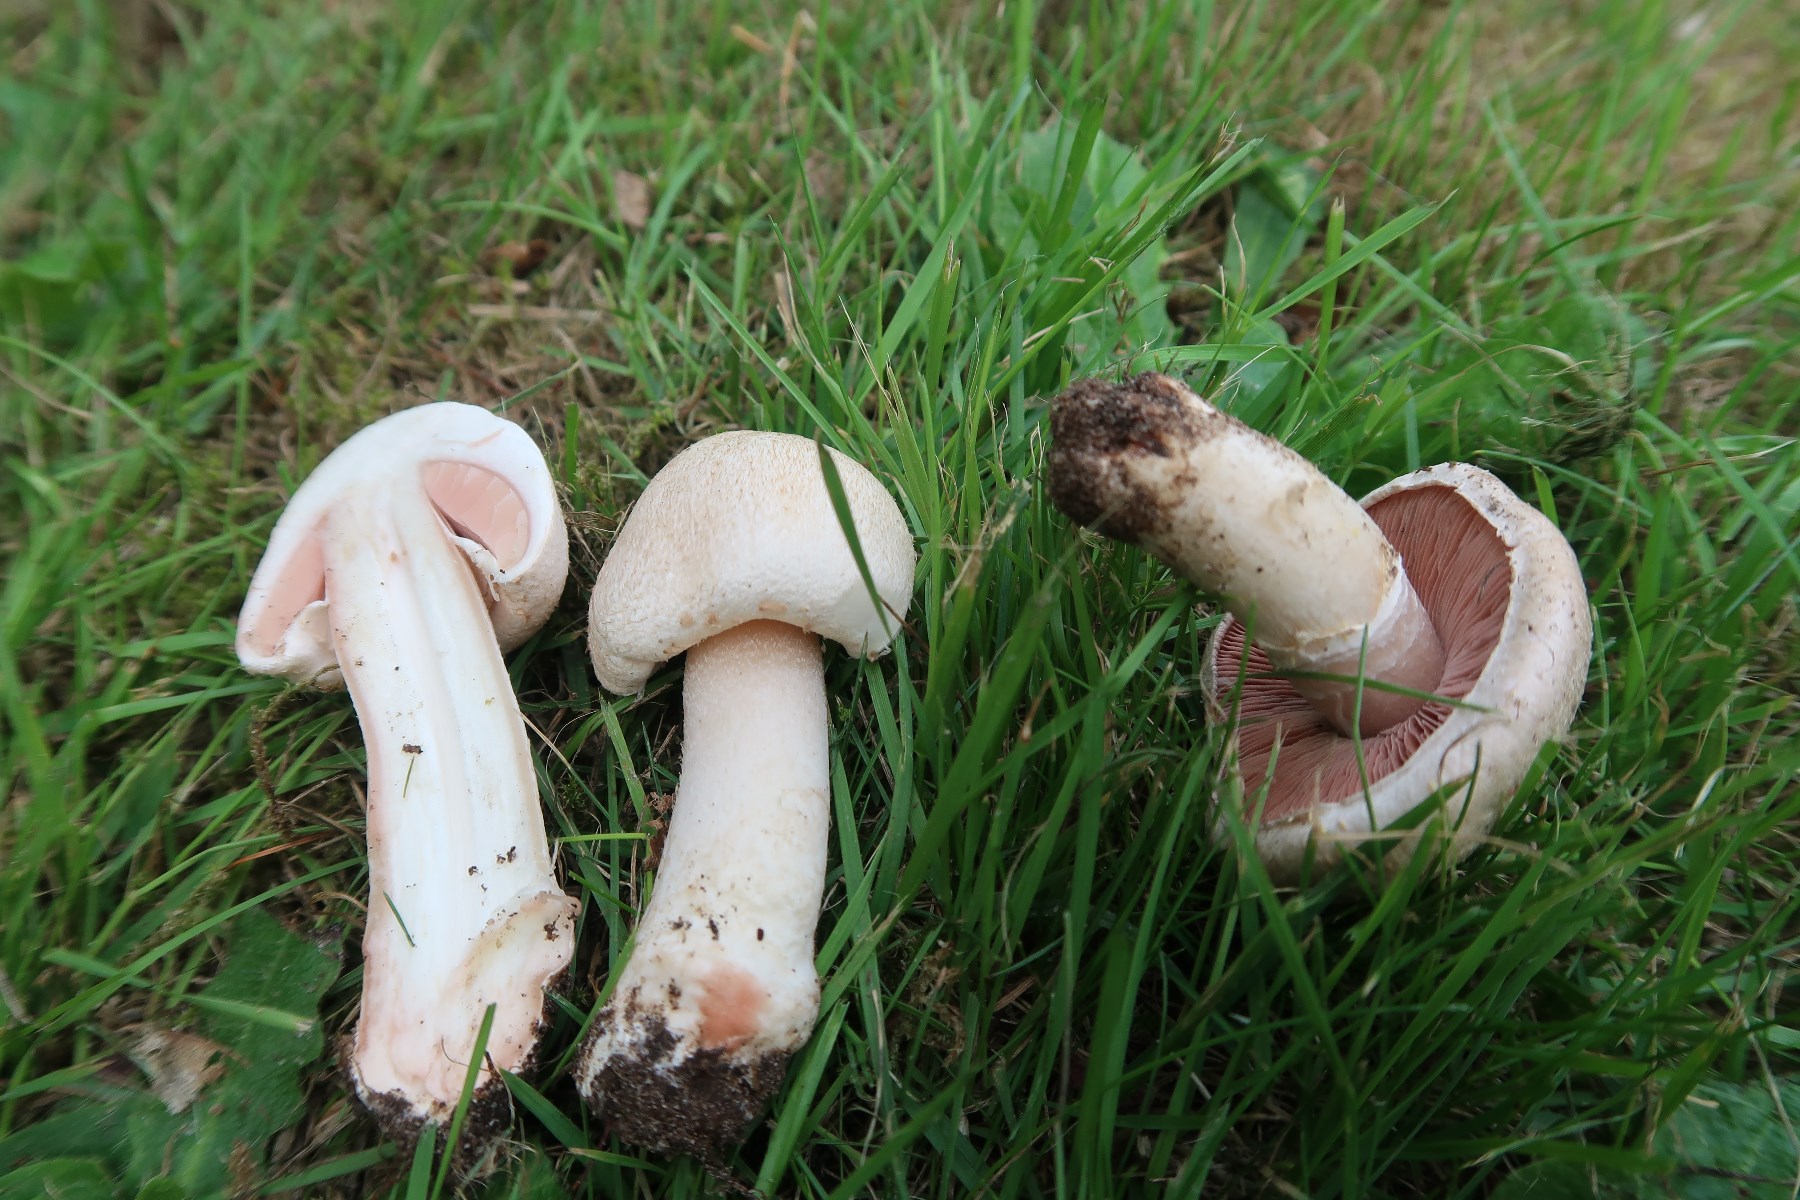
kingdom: Fungi
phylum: Basidiomycota
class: Agaricomycetes
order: Agaricales
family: Agaricaceae
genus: Agaricus
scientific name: Agaricus campestris
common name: mark-champignon
